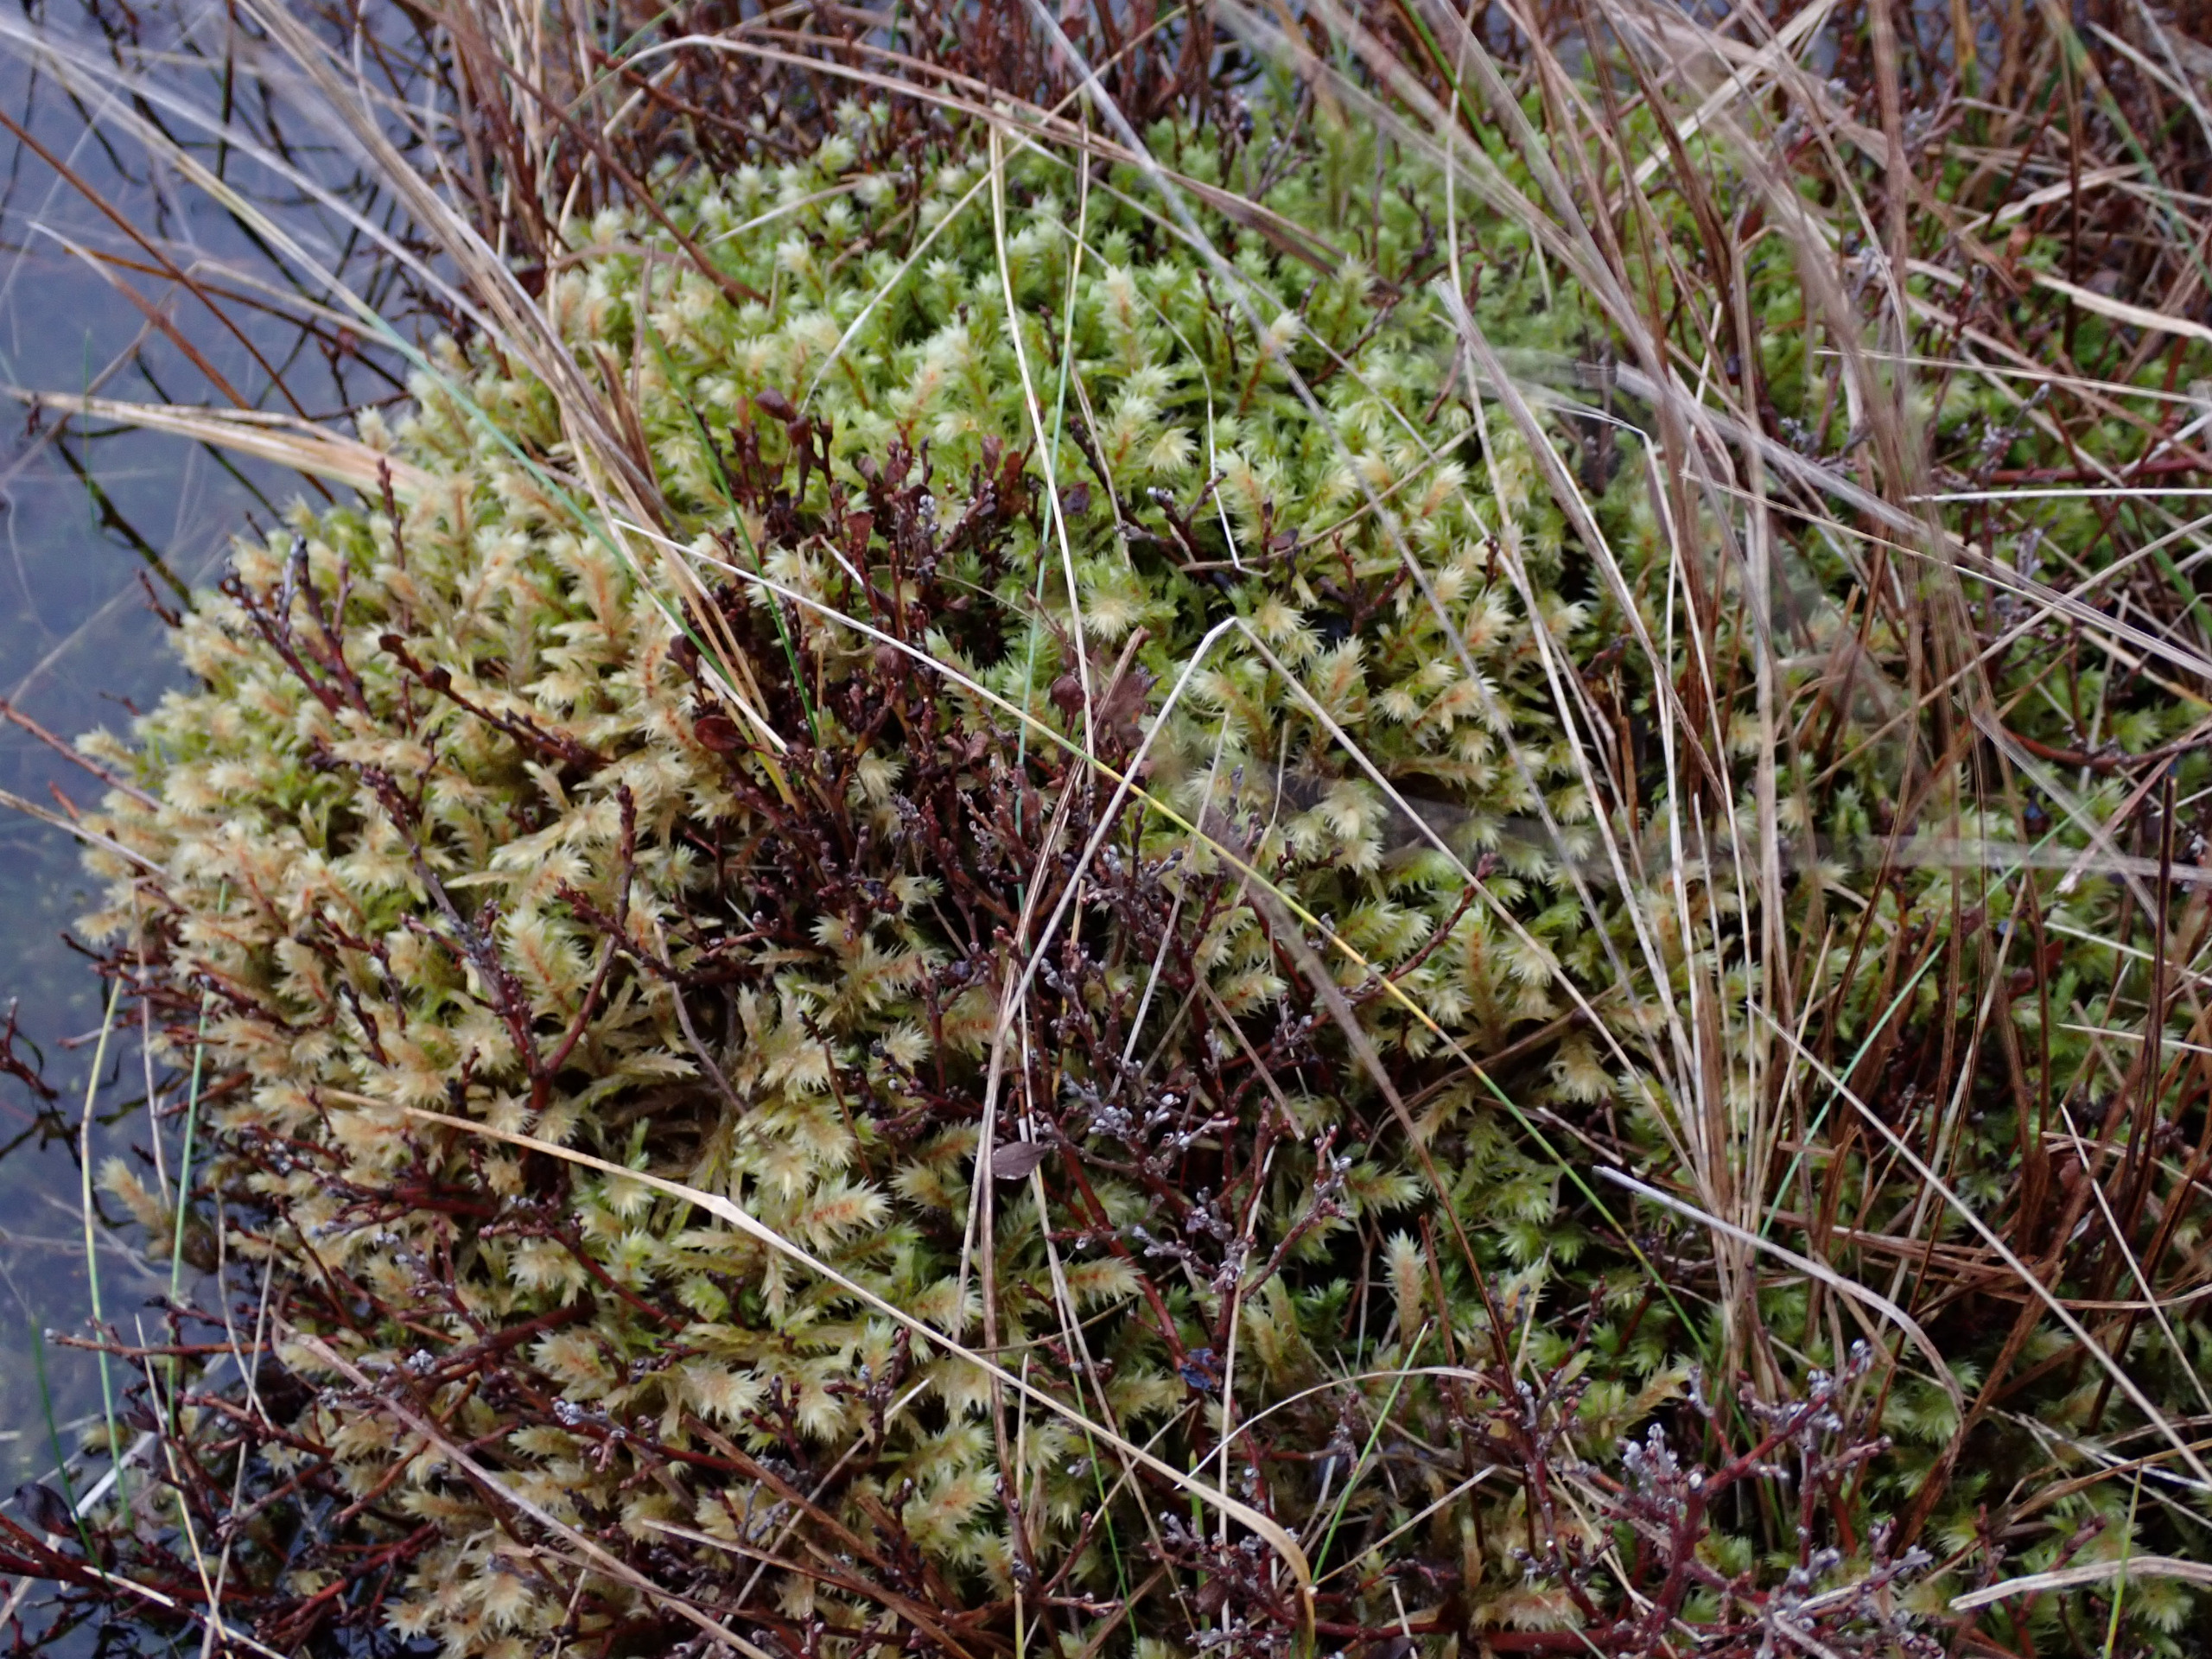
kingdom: Plantae
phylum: Bryophyta
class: Bryopsida
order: Hypnales
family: Hylocomiaceae
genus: Hylocomiadelphus
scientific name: Hylocomiadelphus triquetrus
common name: Stor kransemos
